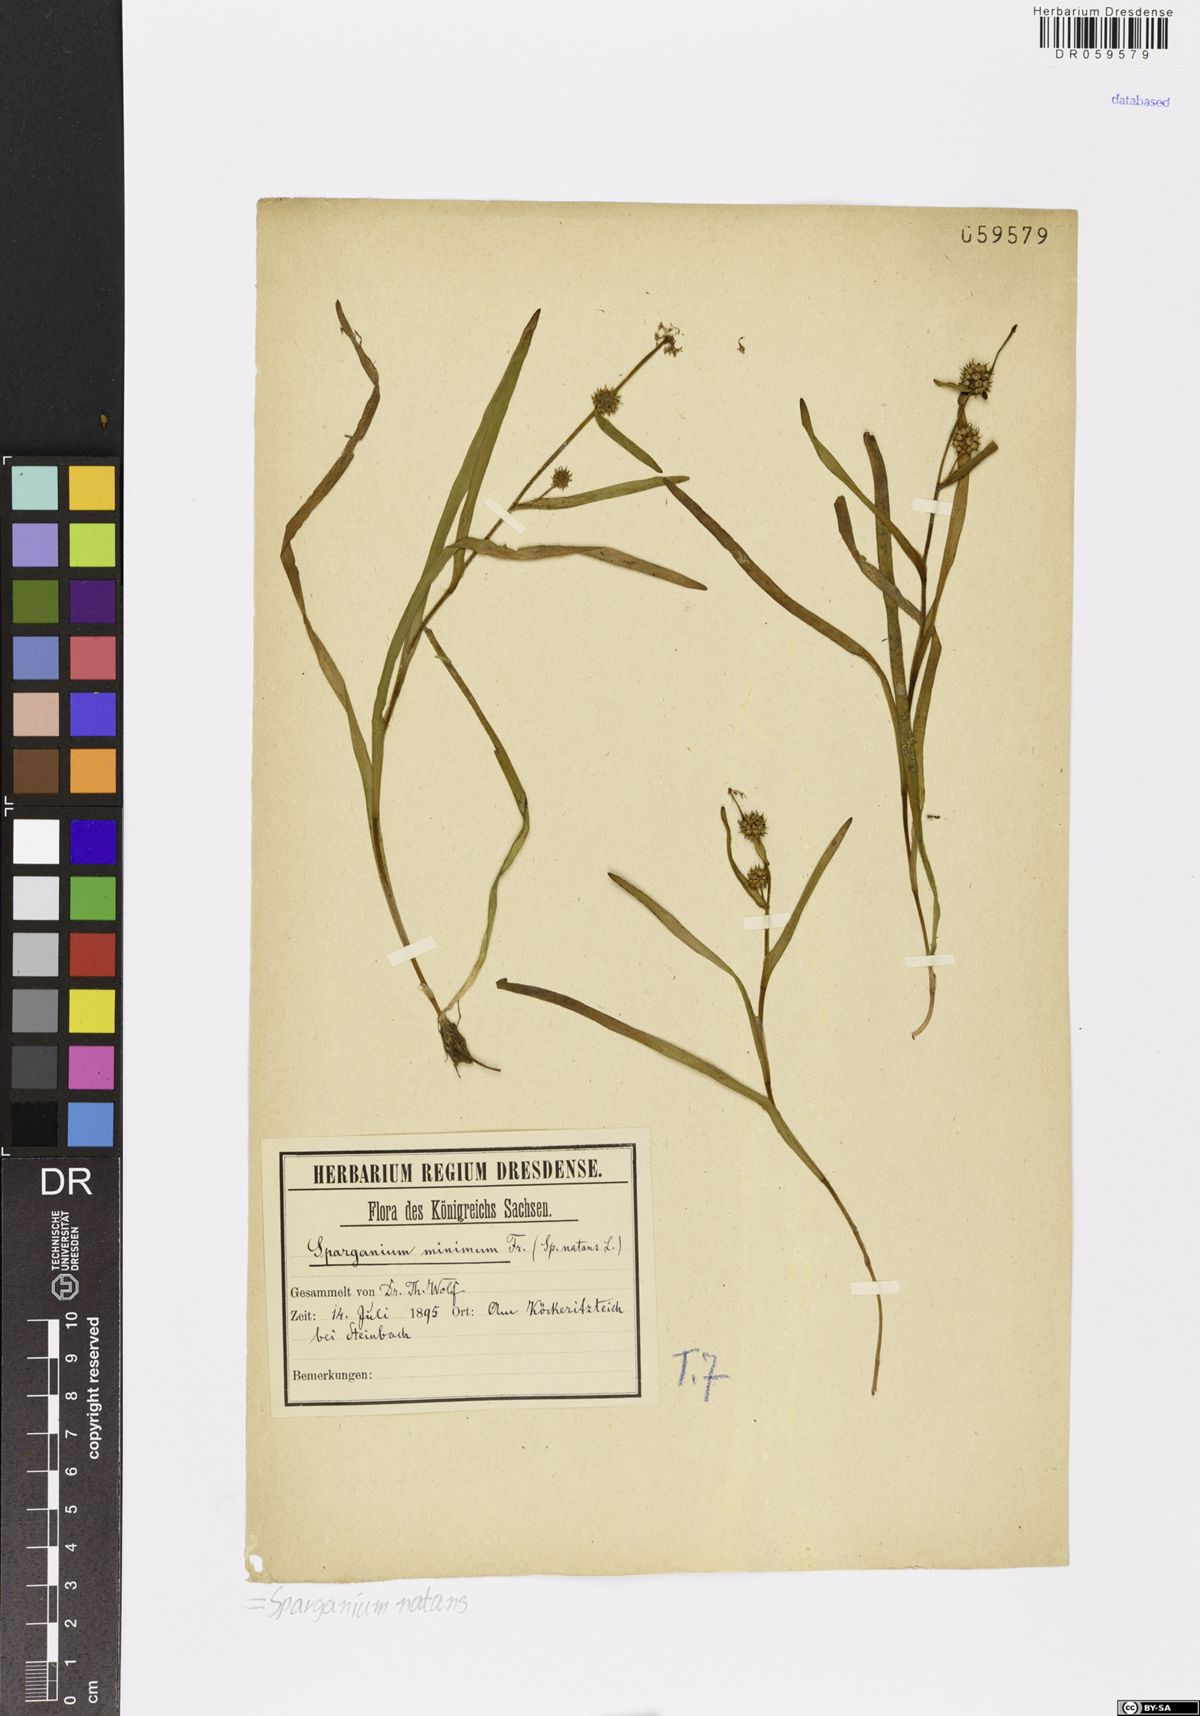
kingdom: Plantae
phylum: Tracheophyta
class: Liliopsida
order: Poales
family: Typhaceae
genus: Sparganium
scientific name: Sparganium natans
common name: Least bur-reed
